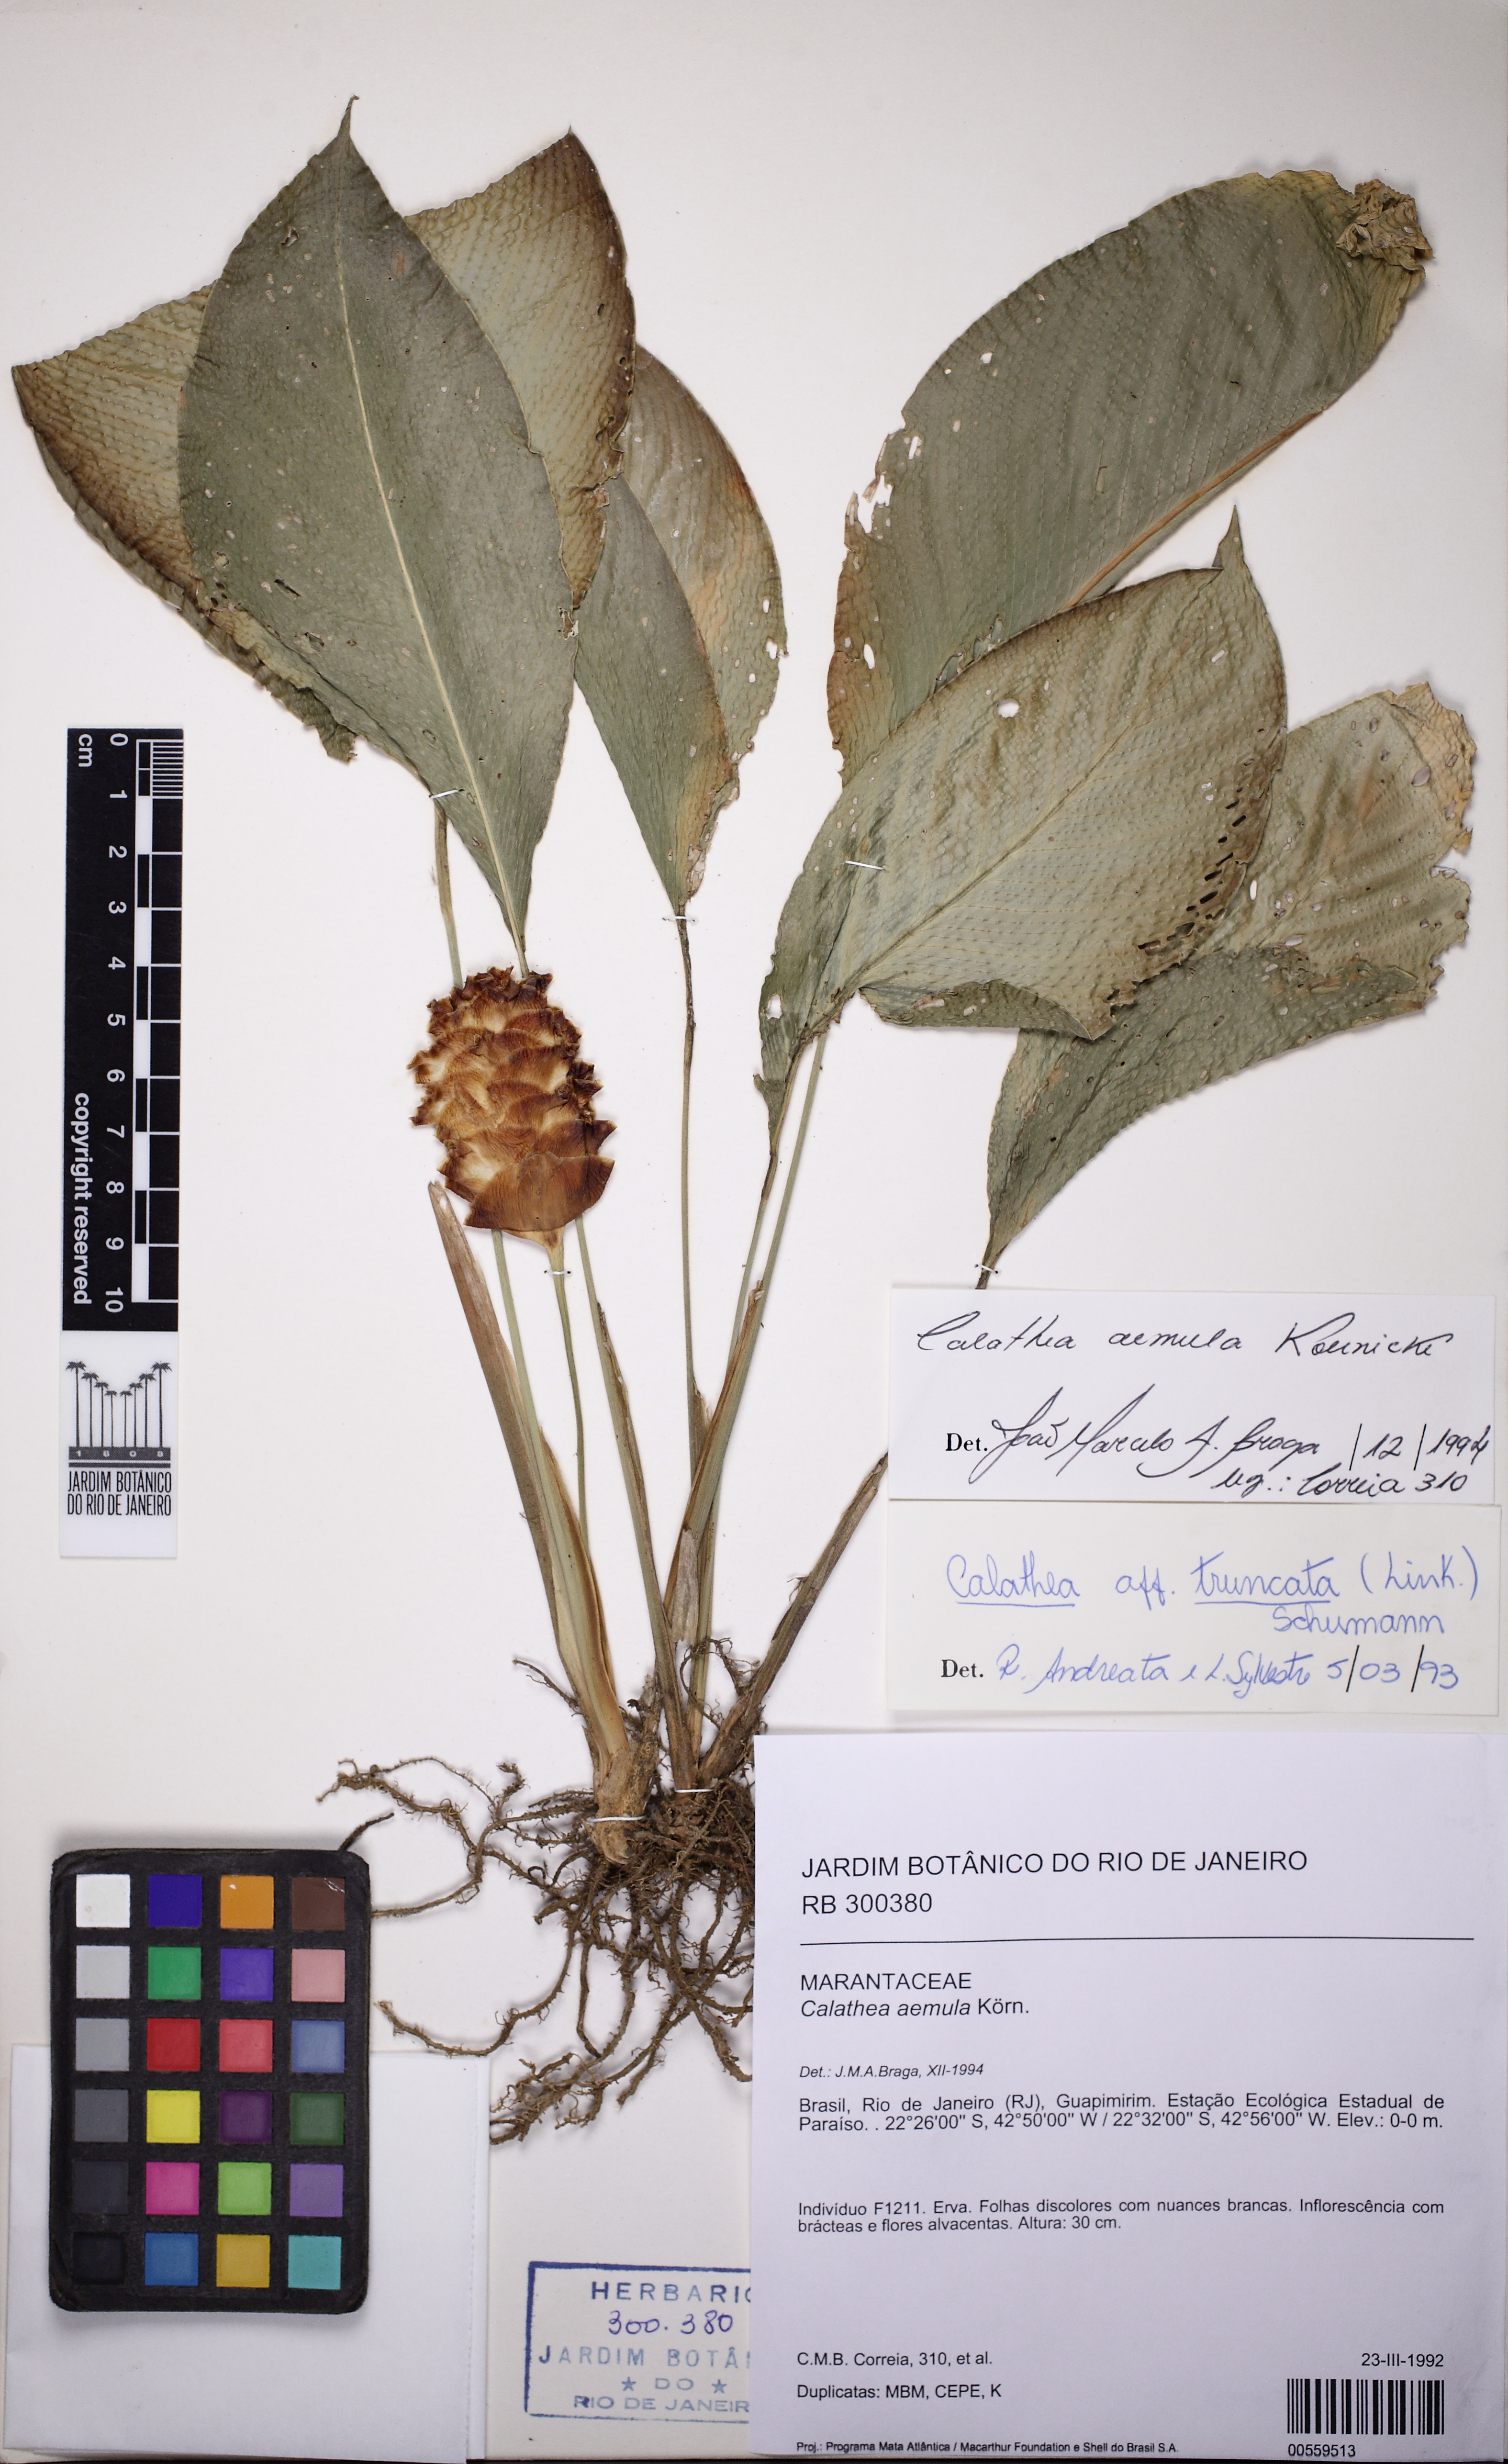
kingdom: Plantae
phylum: Tracheophyta
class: Liliopsida
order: Zingiberales
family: Marantaceae
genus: Goeppertia
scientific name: Goeppertia aemula
